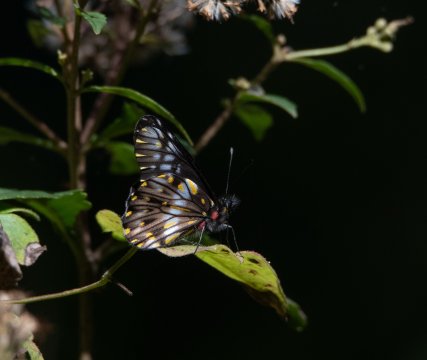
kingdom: Animalia
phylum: Arthropoda
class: Insecta
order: Lepidoptera
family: Pieridae
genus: Catasticta
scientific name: Catasticta flisa
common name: Narrow-banded Dartwhite
